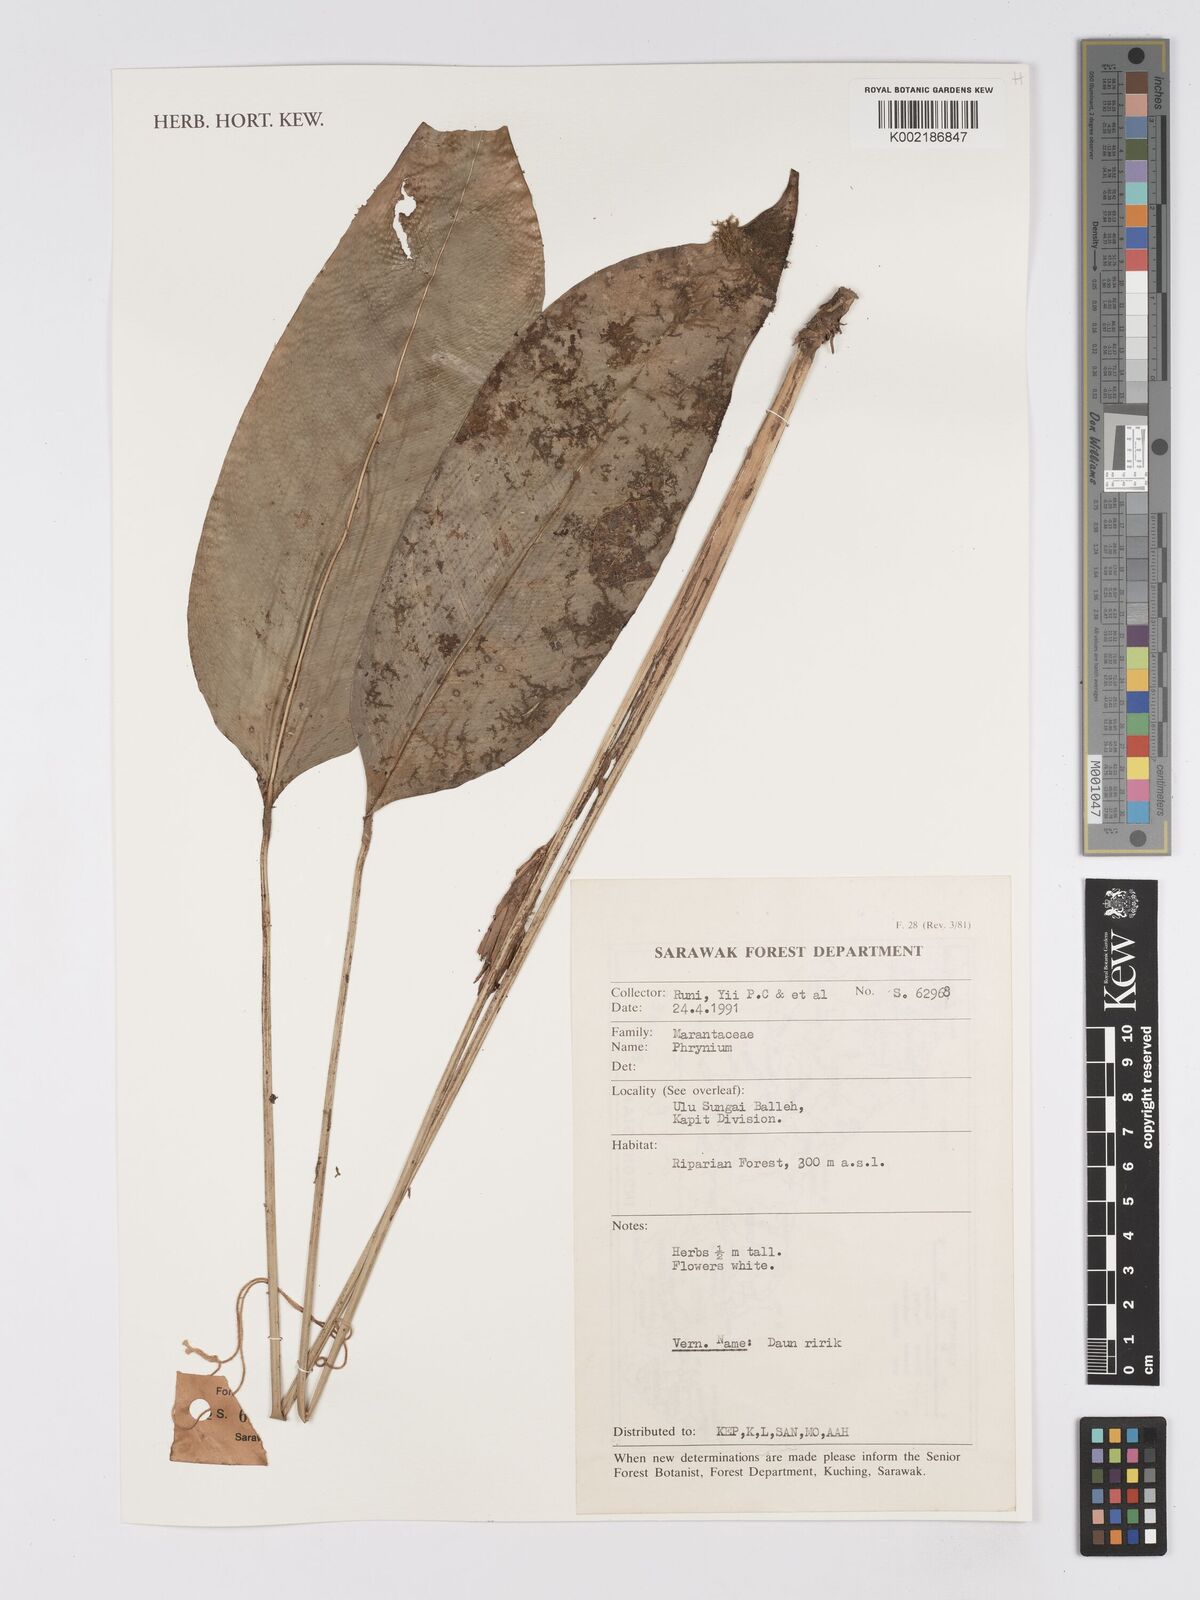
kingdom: Plantae
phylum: Tracheophyta
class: Liliopsida
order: Zingiberales
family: Marantaceae
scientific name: Marantaceae
